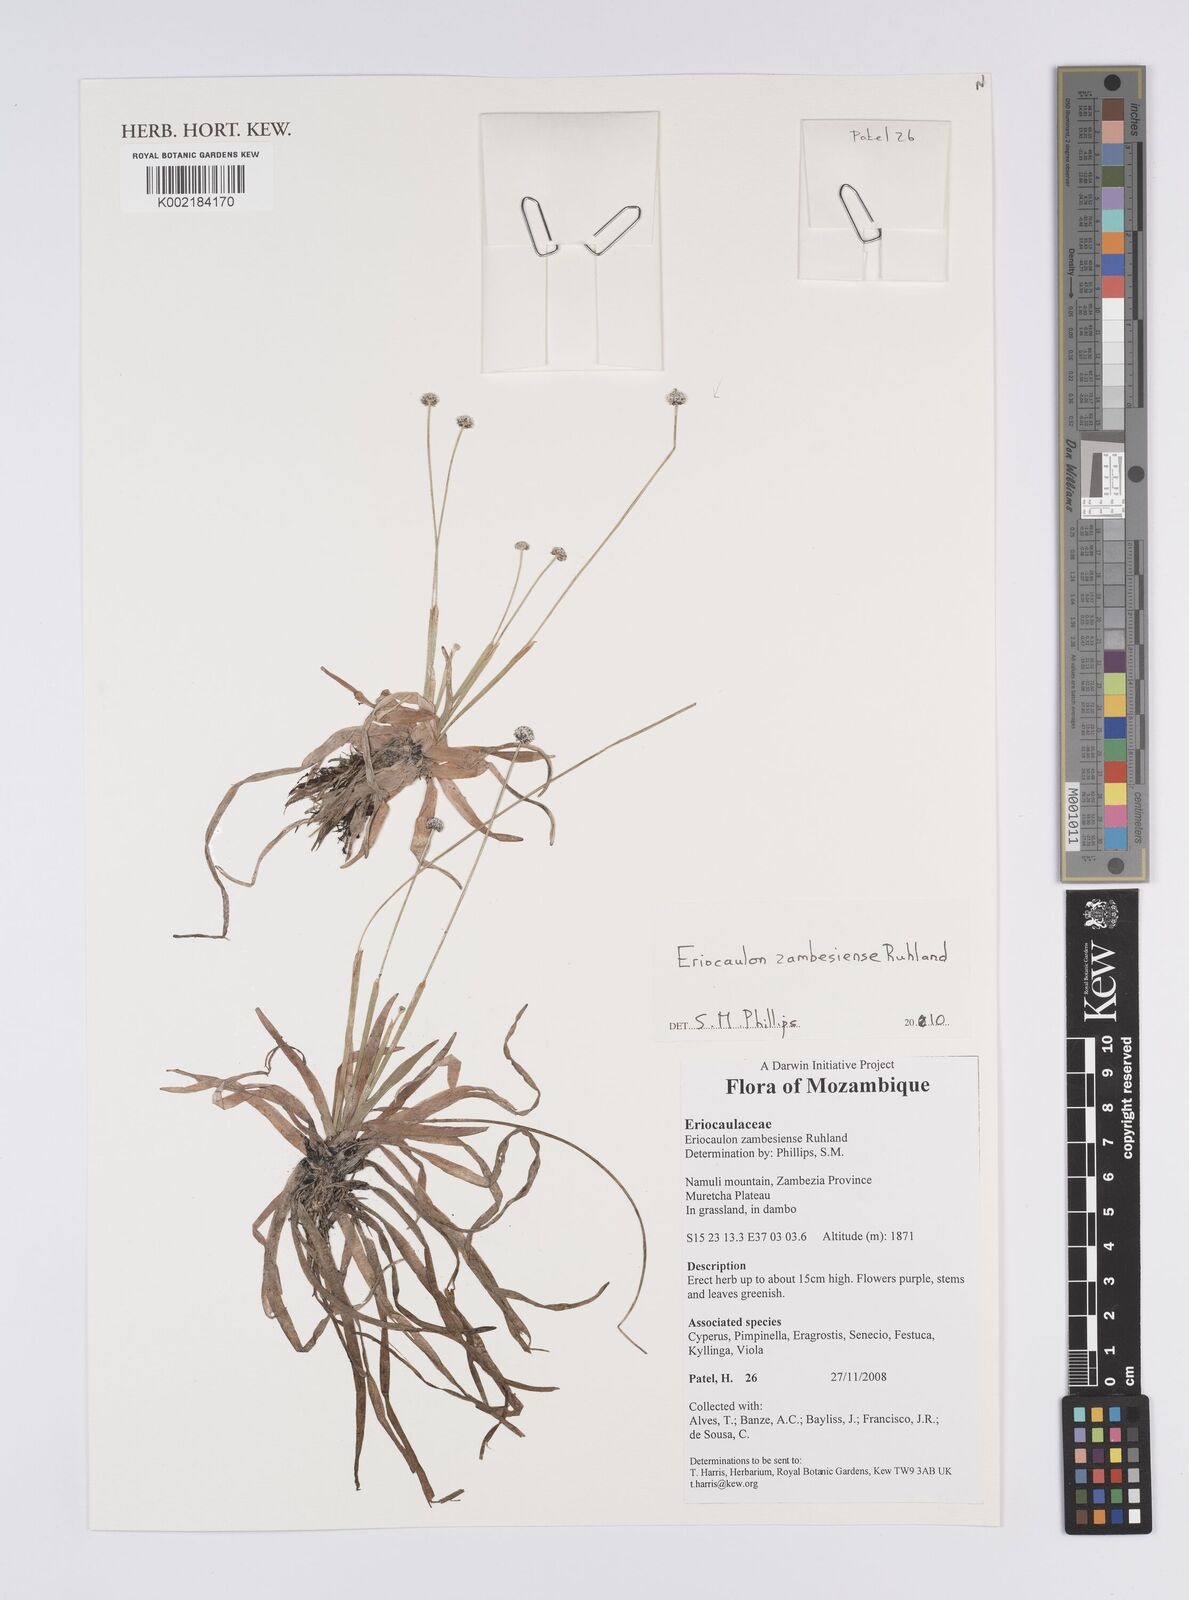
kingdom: Plantae
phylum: Tracheophyta
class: Liliopsida
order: Poales
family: Eriocaulaceae
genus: Eriocaulon
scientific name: Eriocaulon zambesiense
